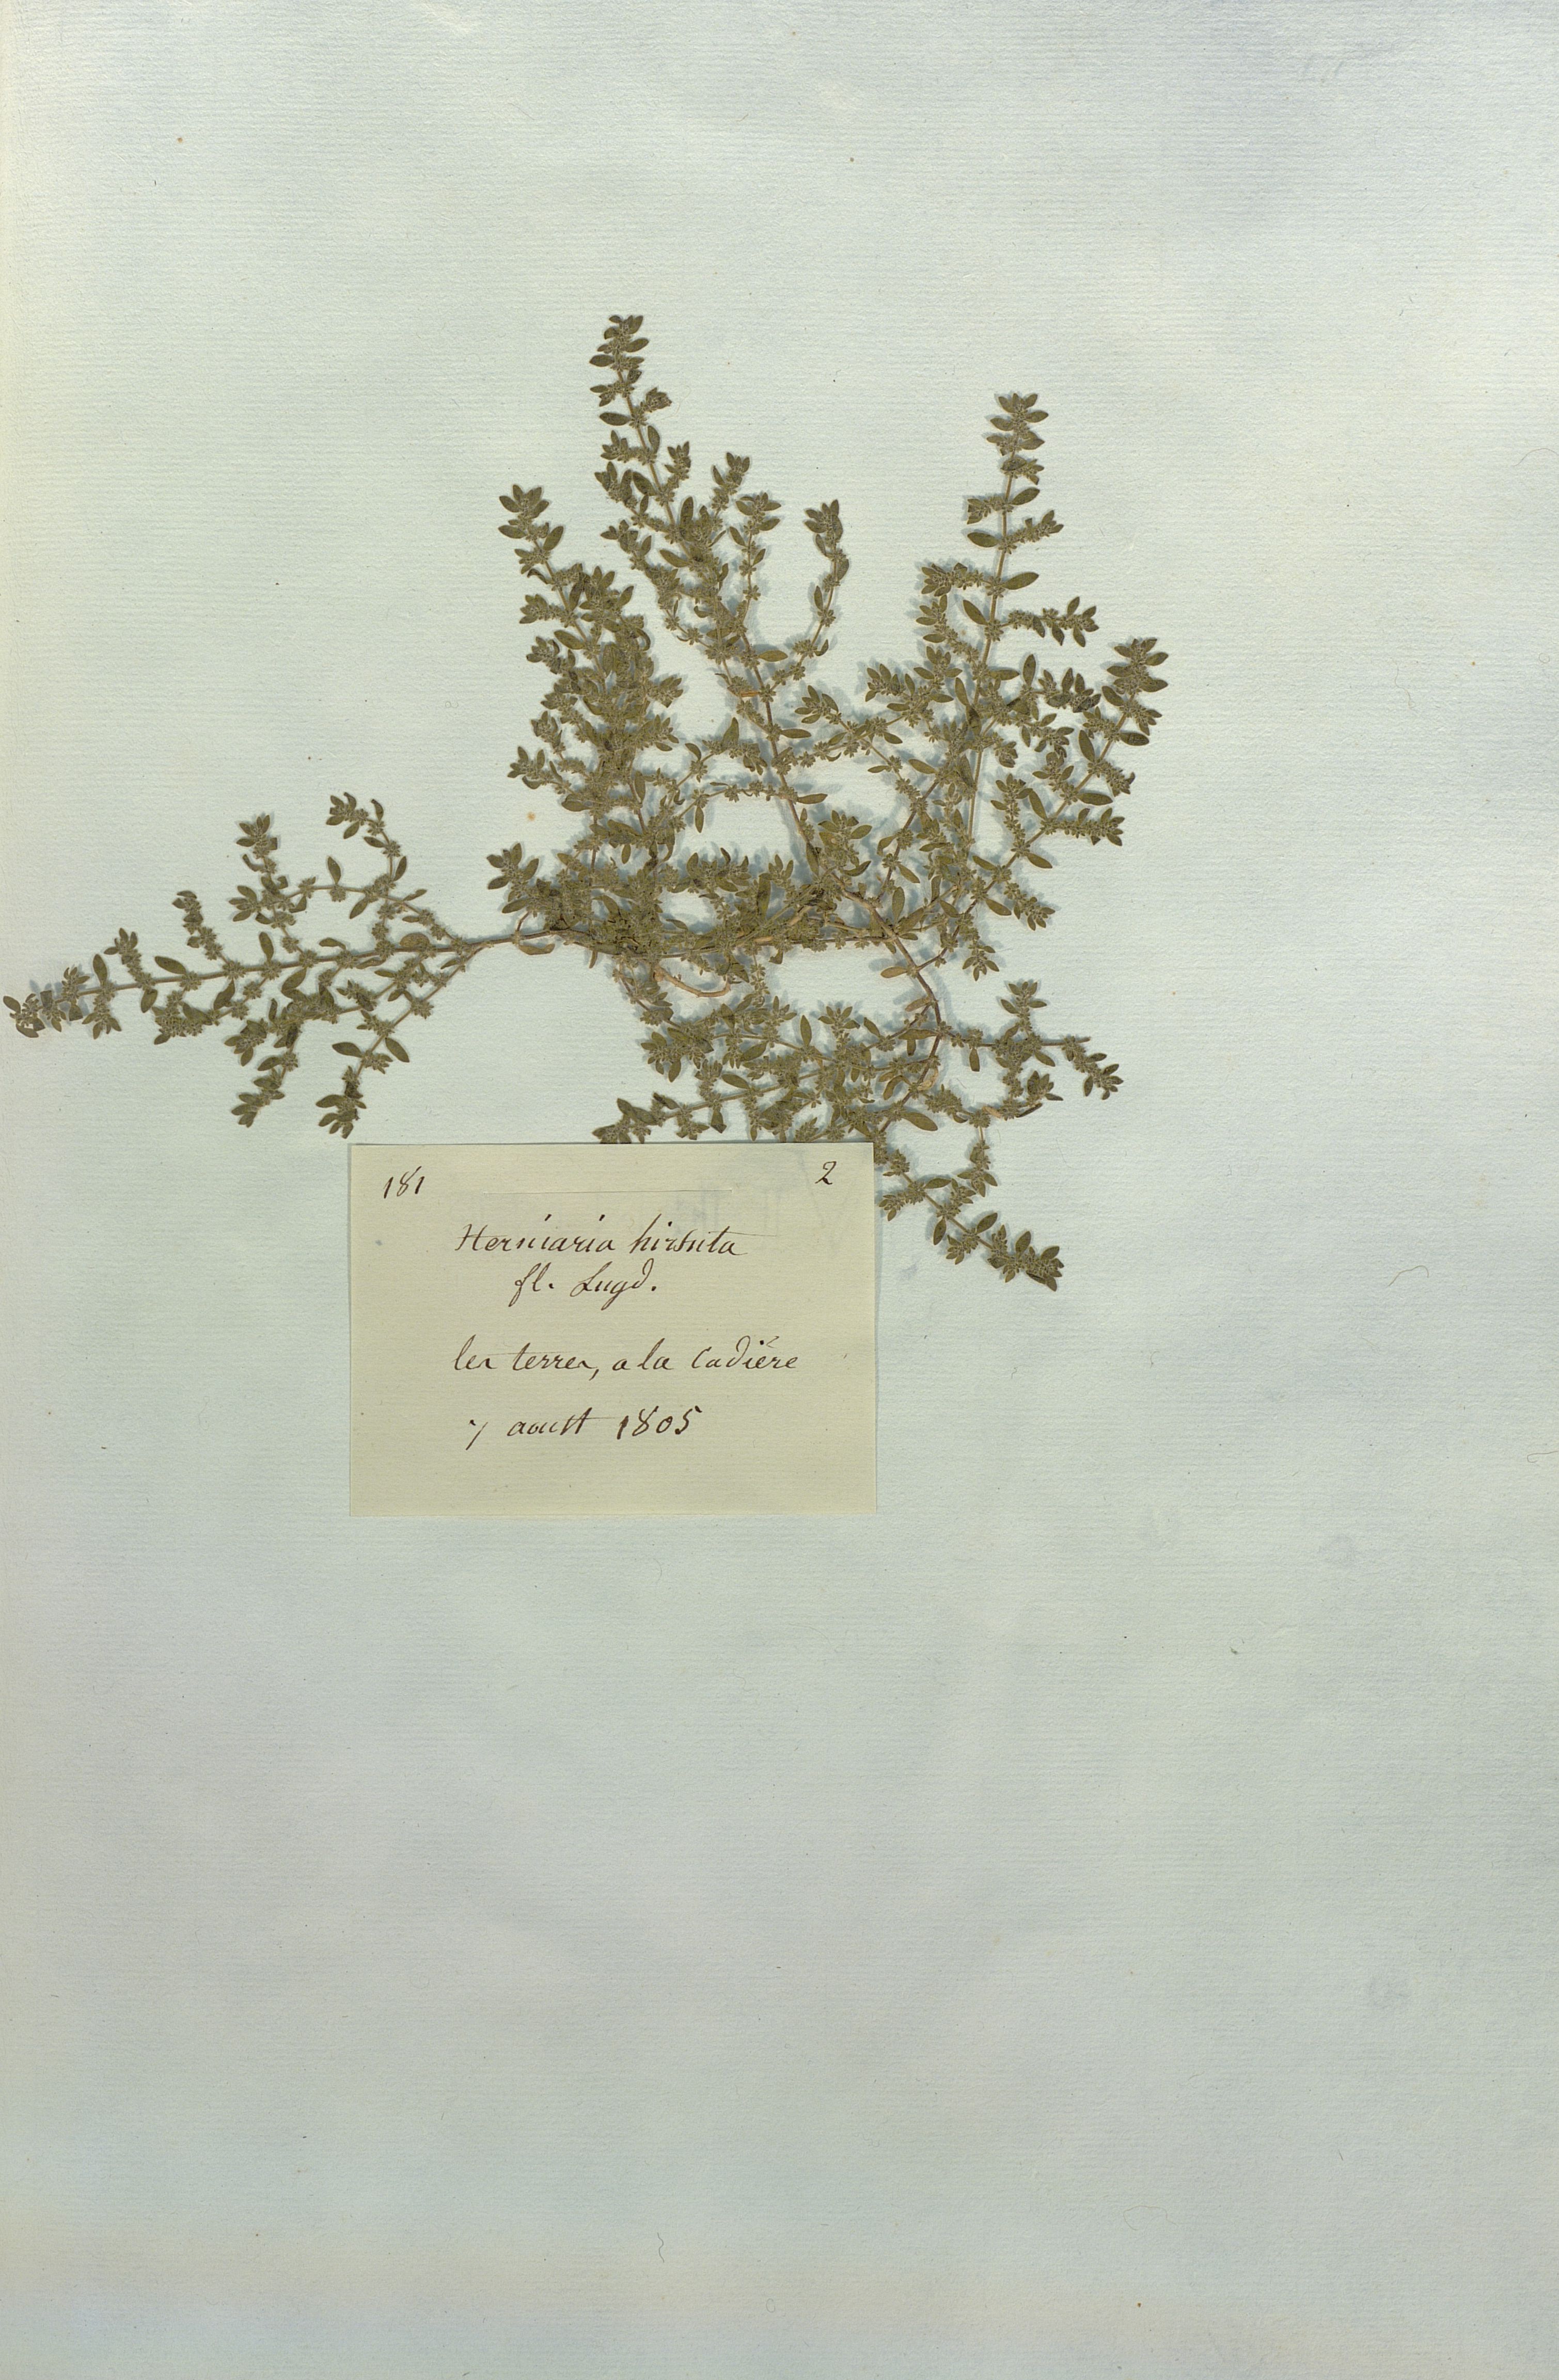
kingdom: Plantae
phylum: Tracheophyta
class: Magnoliopsida
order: Caryophyllales
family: Caryophyllaceae
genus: Herniaria
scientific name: Herniaria hirsuta
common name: Hairy rupturewort
